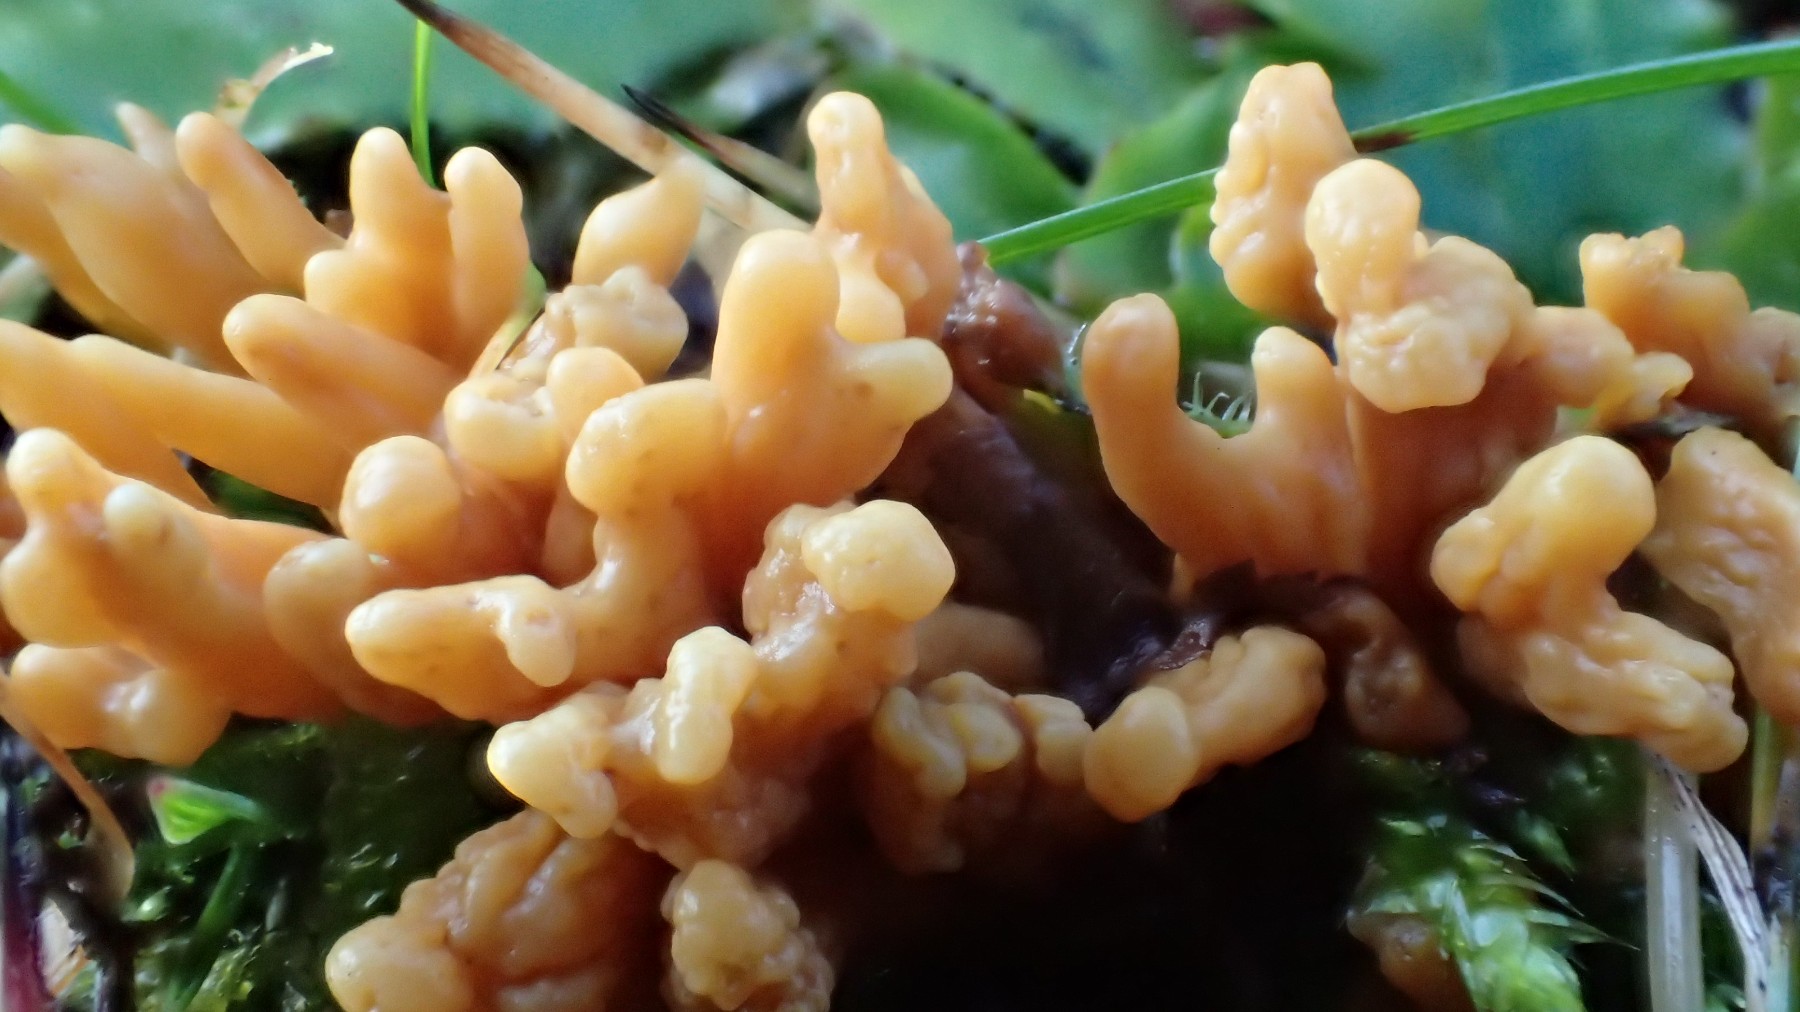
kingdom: Fungi
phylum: Basidiomycota
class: Agaricomycetes
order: Agaricales
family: Clavariaceae
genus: Clavulinopsis
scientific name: Clavulinopsis corniculata
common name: eng-køllesvamp
